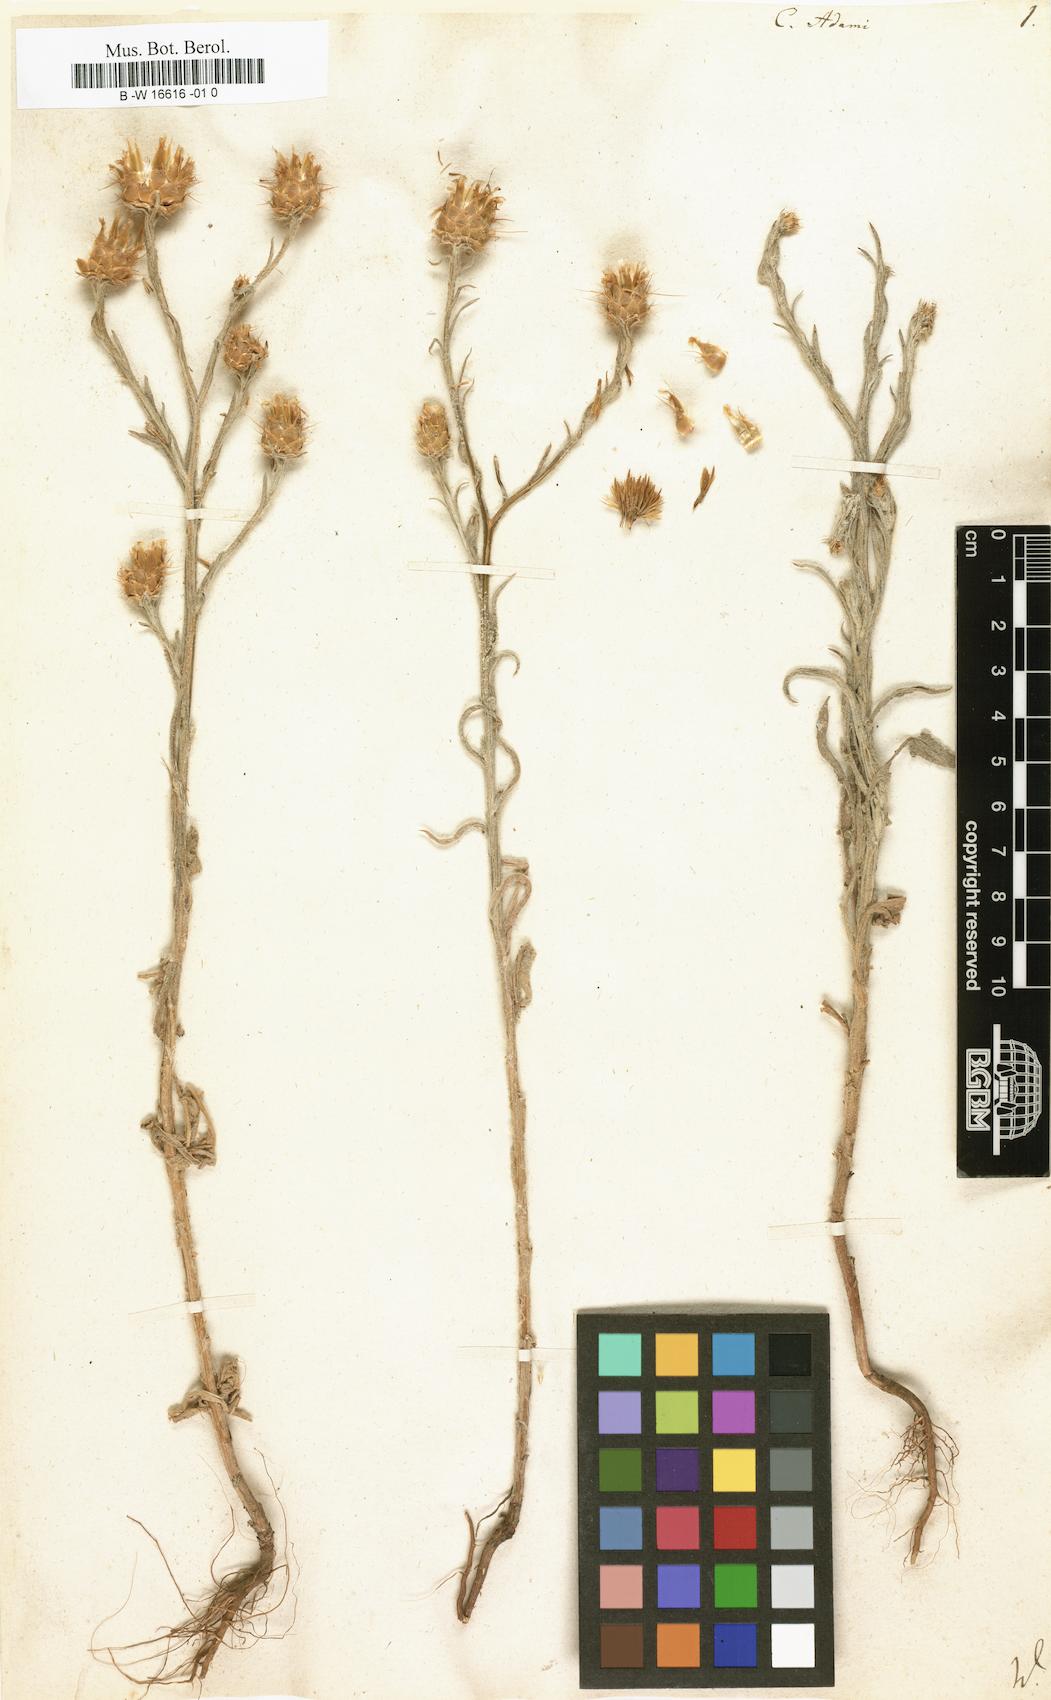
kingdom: Plantae
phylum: Tracheophyta
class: Magnoliopsida
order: Asterales
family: Asteraceae
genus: Centaurea
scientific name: Centaurea adami
